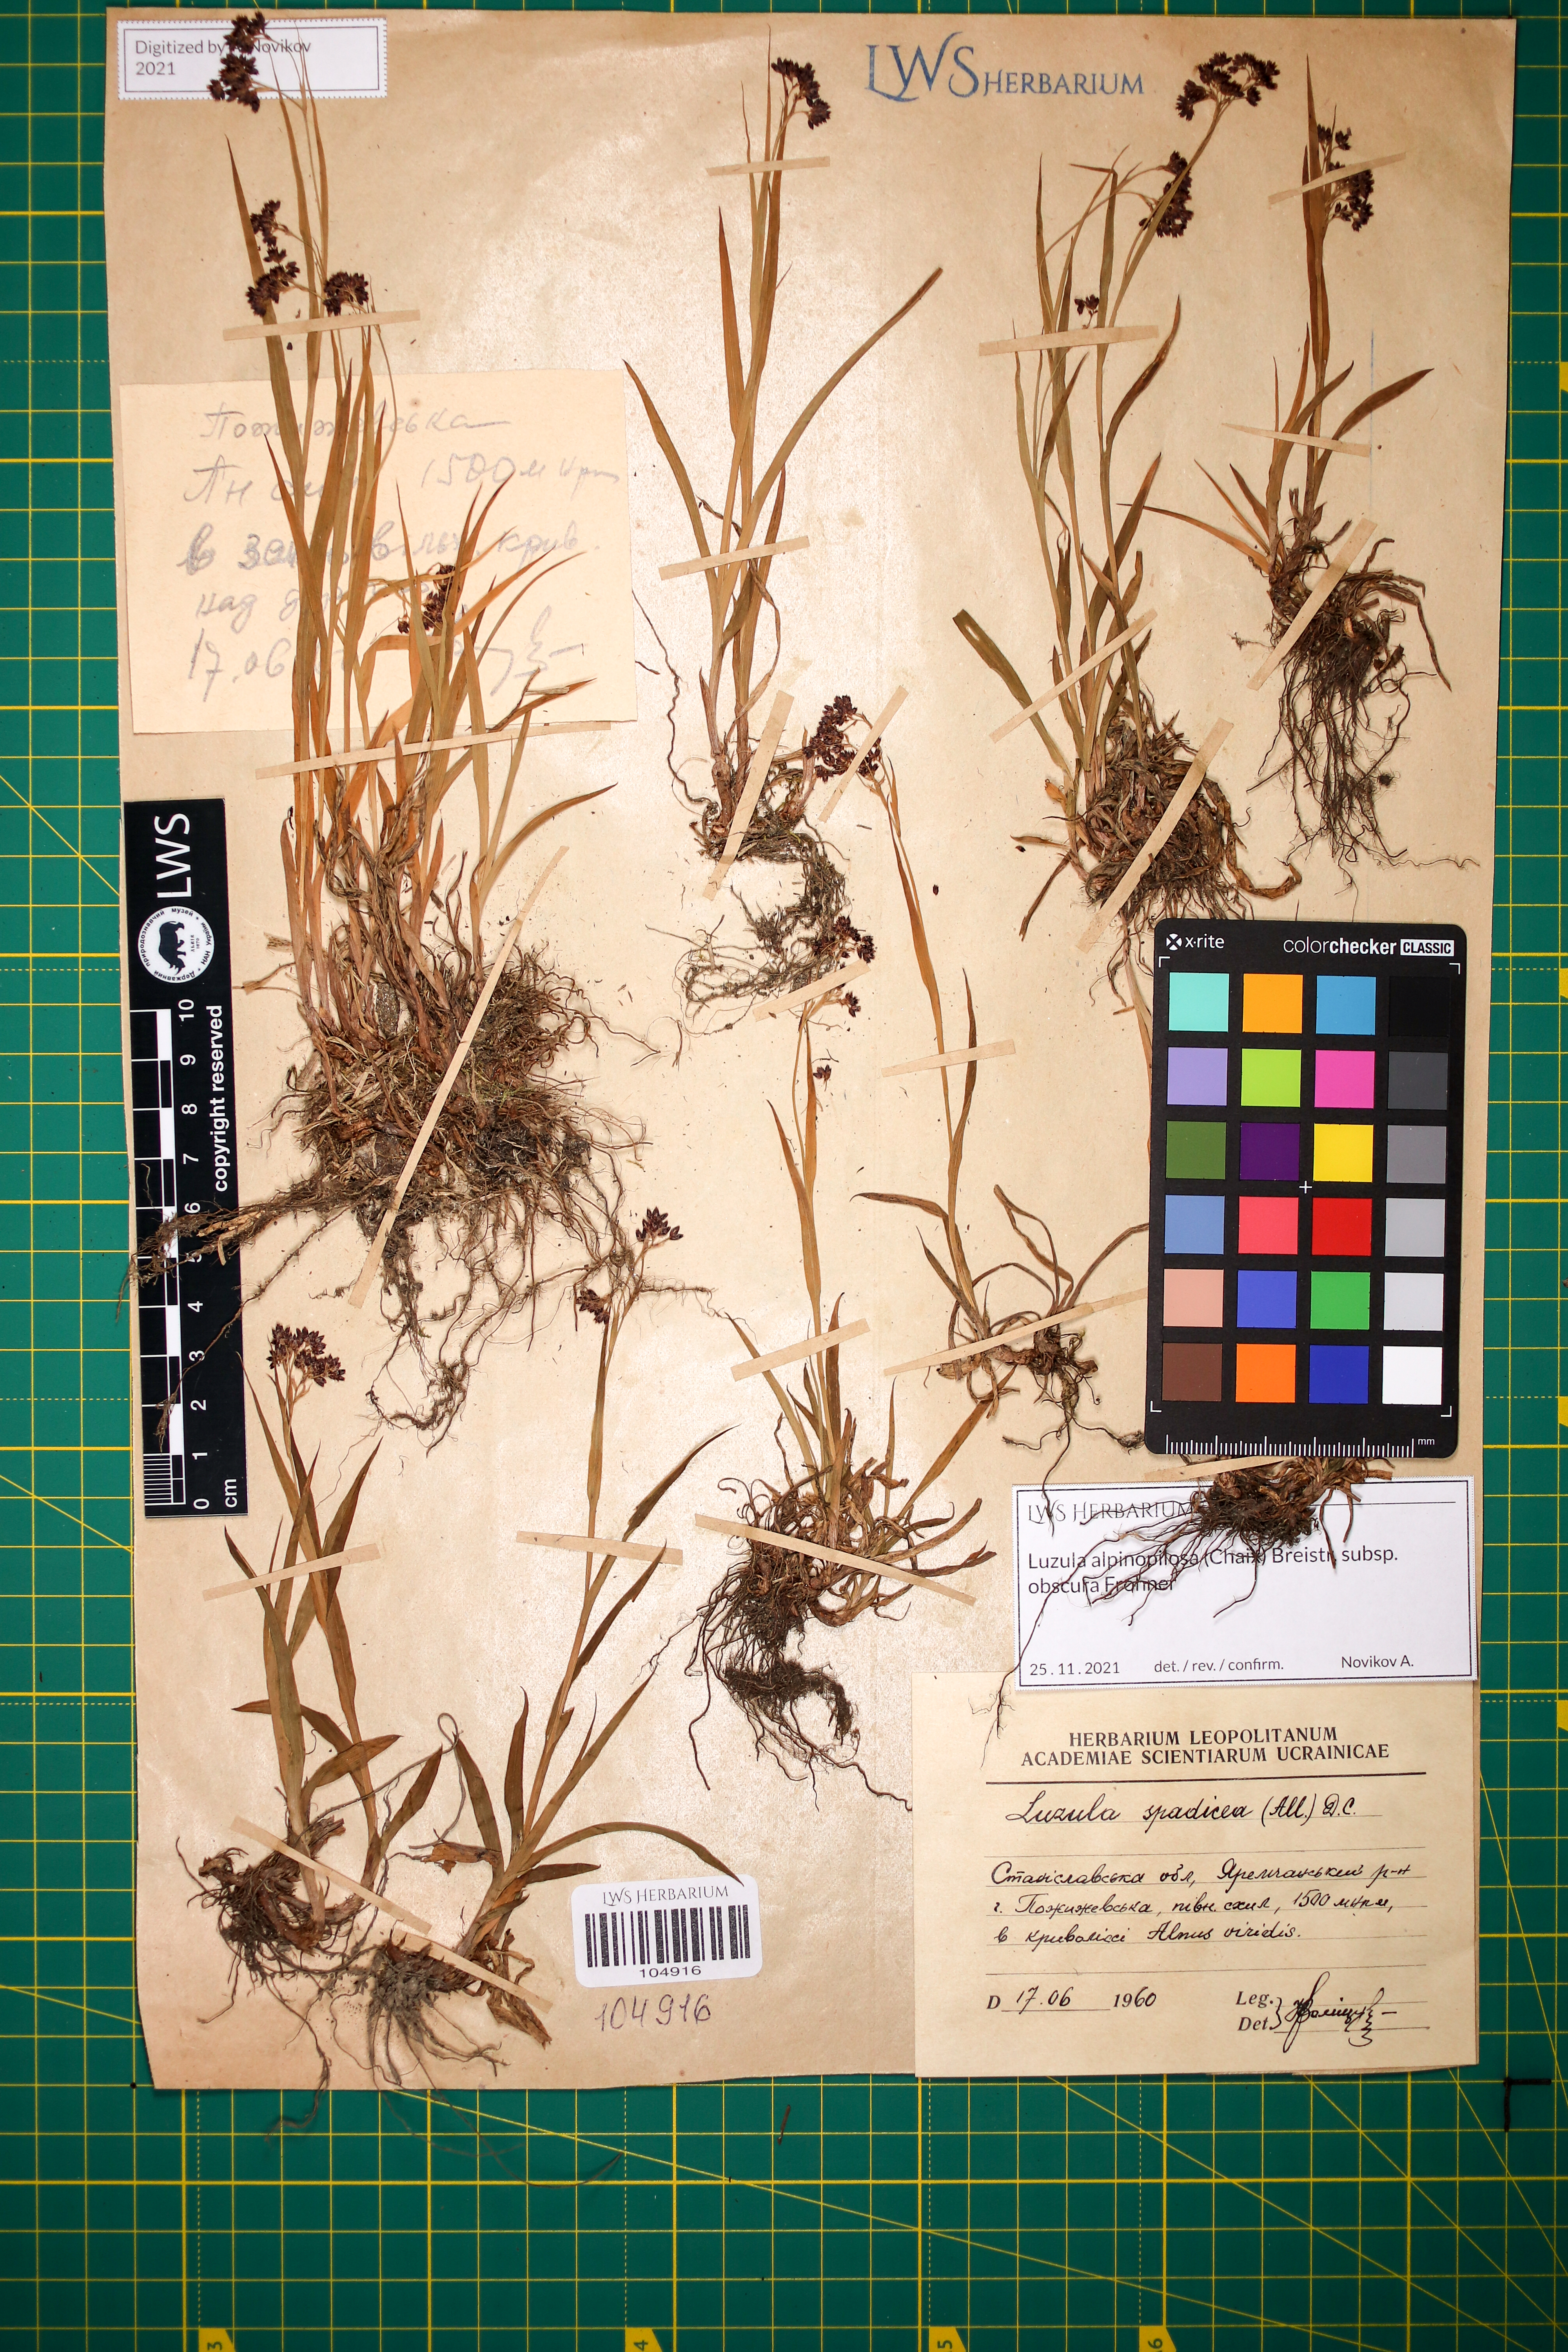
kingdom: Plantae
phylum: Tracheophyta
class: Liliopsida
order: Poales
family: Juncaceae
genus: Luzula
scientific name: Luzula alpinopilosa
